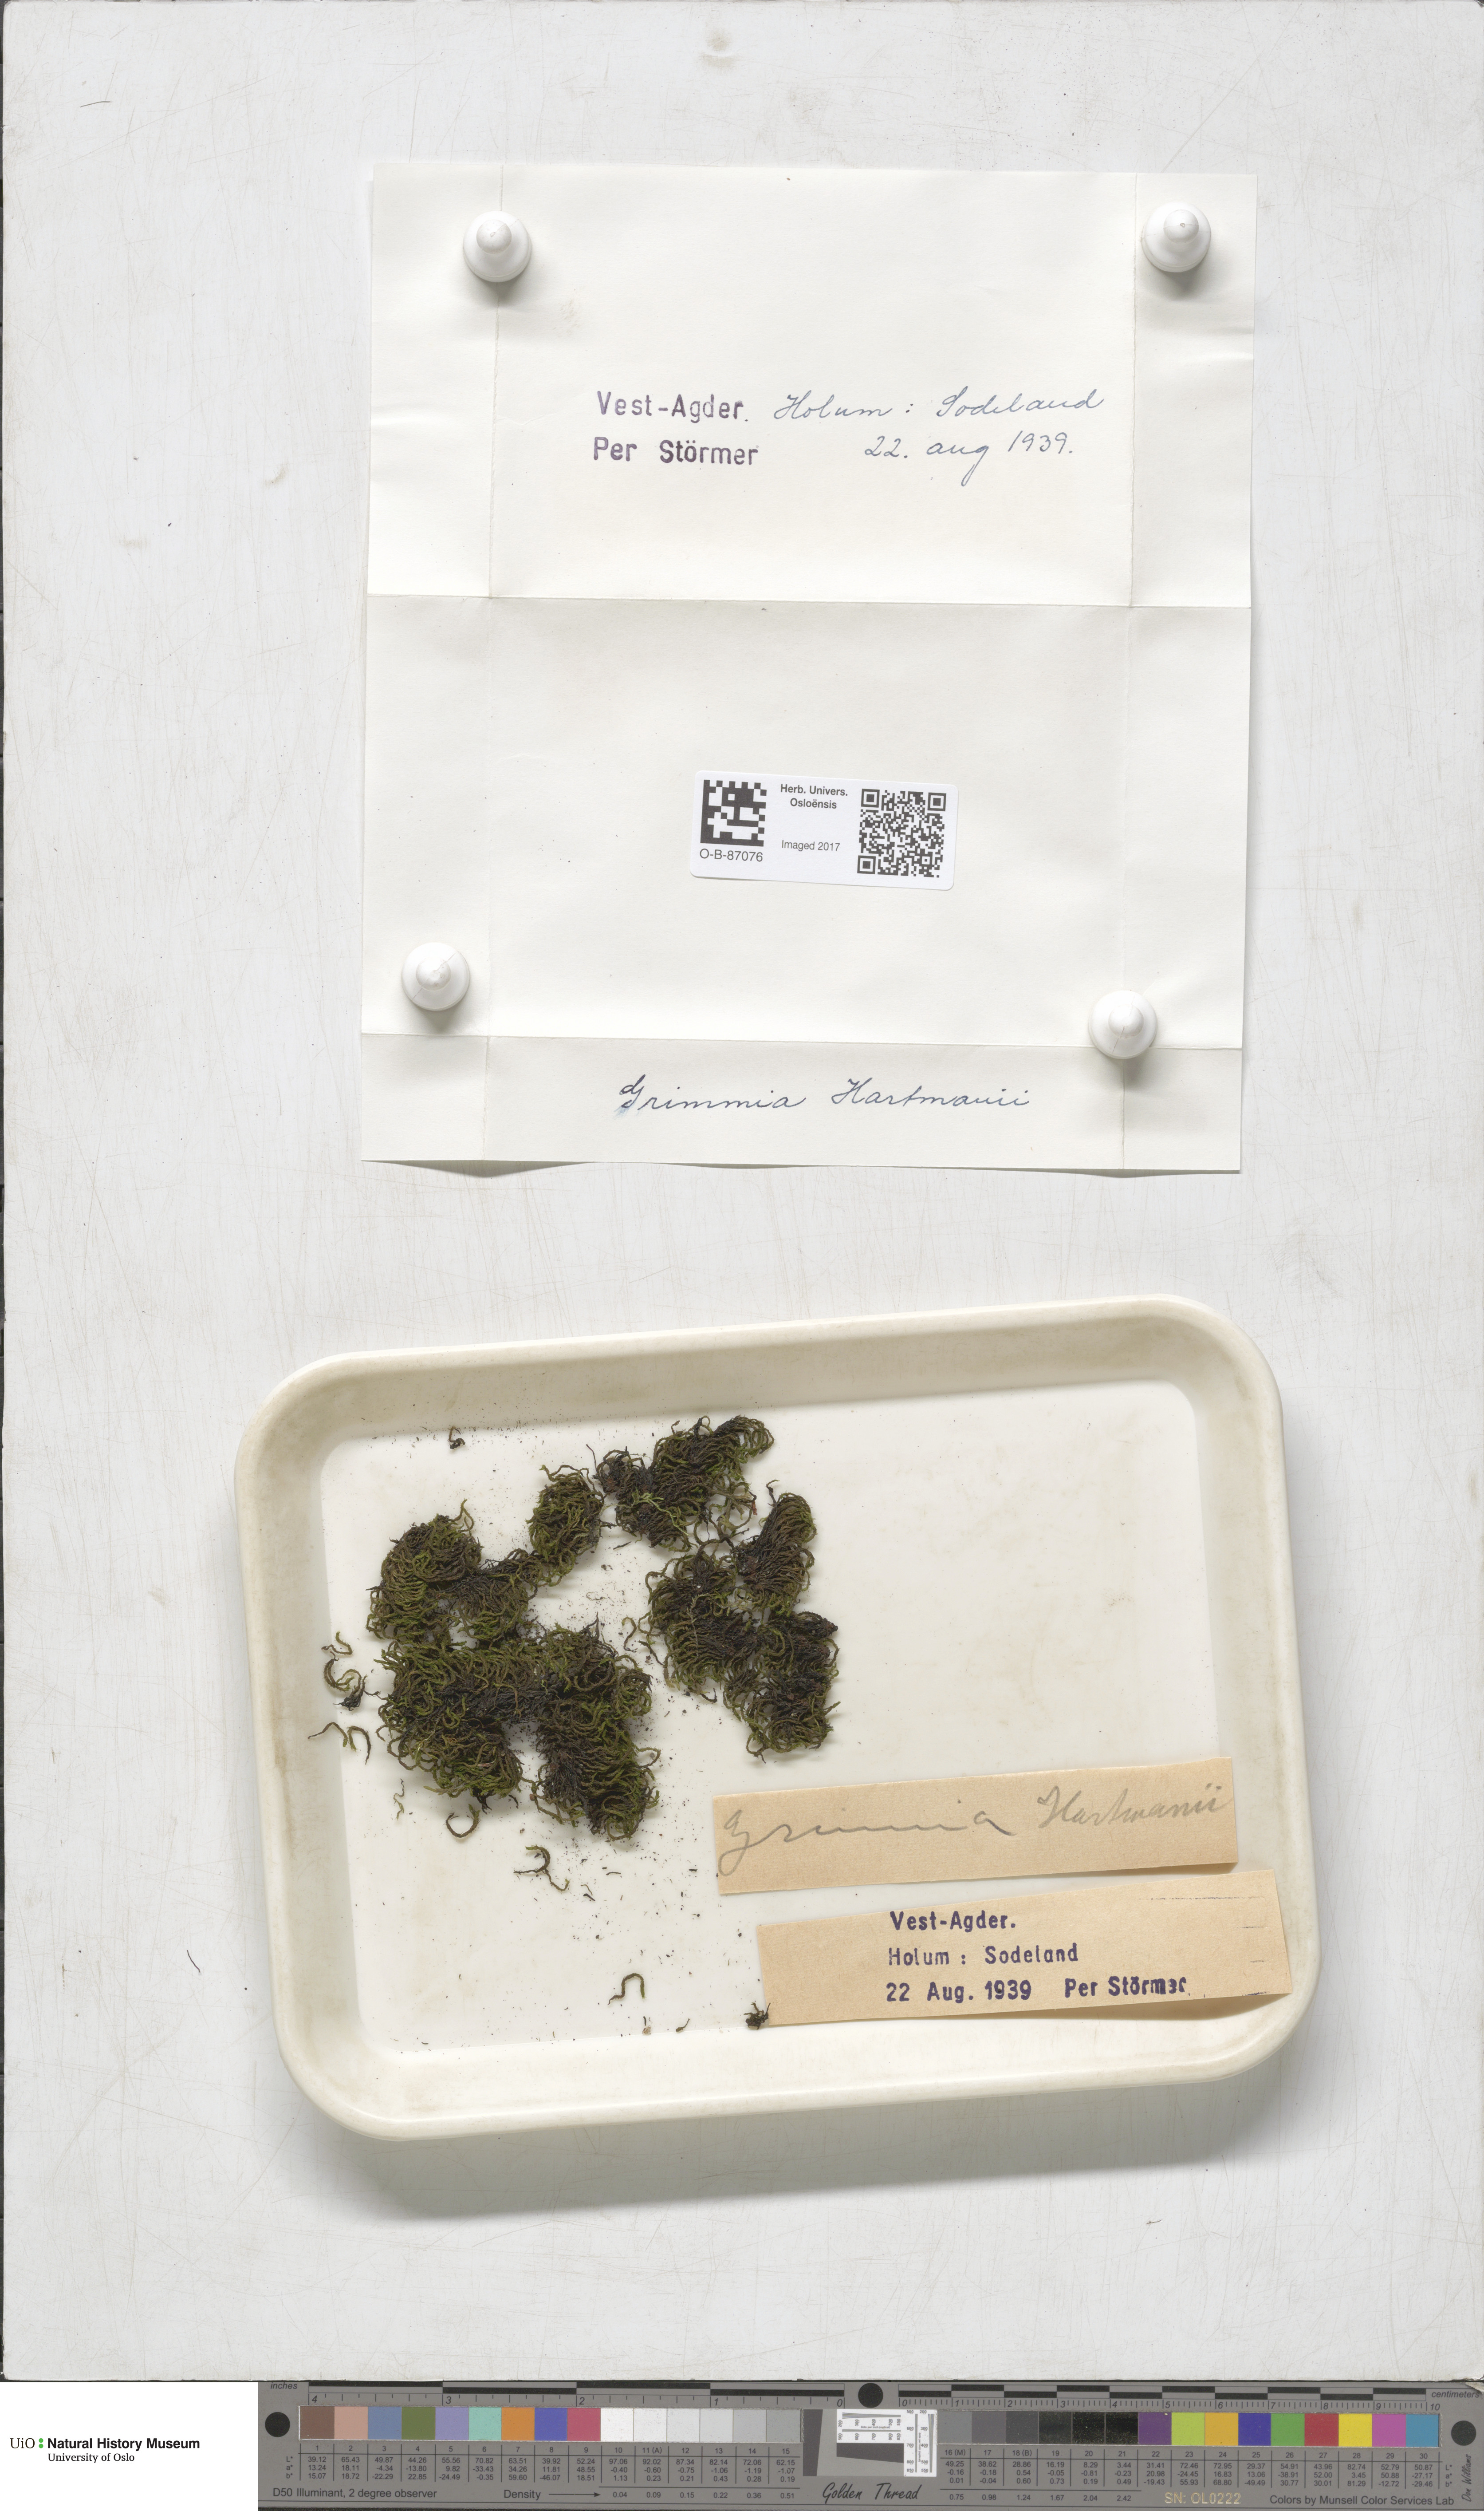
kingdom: Plantae
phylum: Bryophyta
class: Bryopsida
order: Grimmiales
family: Grimmiaceae
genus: Grimmia
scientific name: Grimmia hartmanii
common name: Hartman's grimmia
